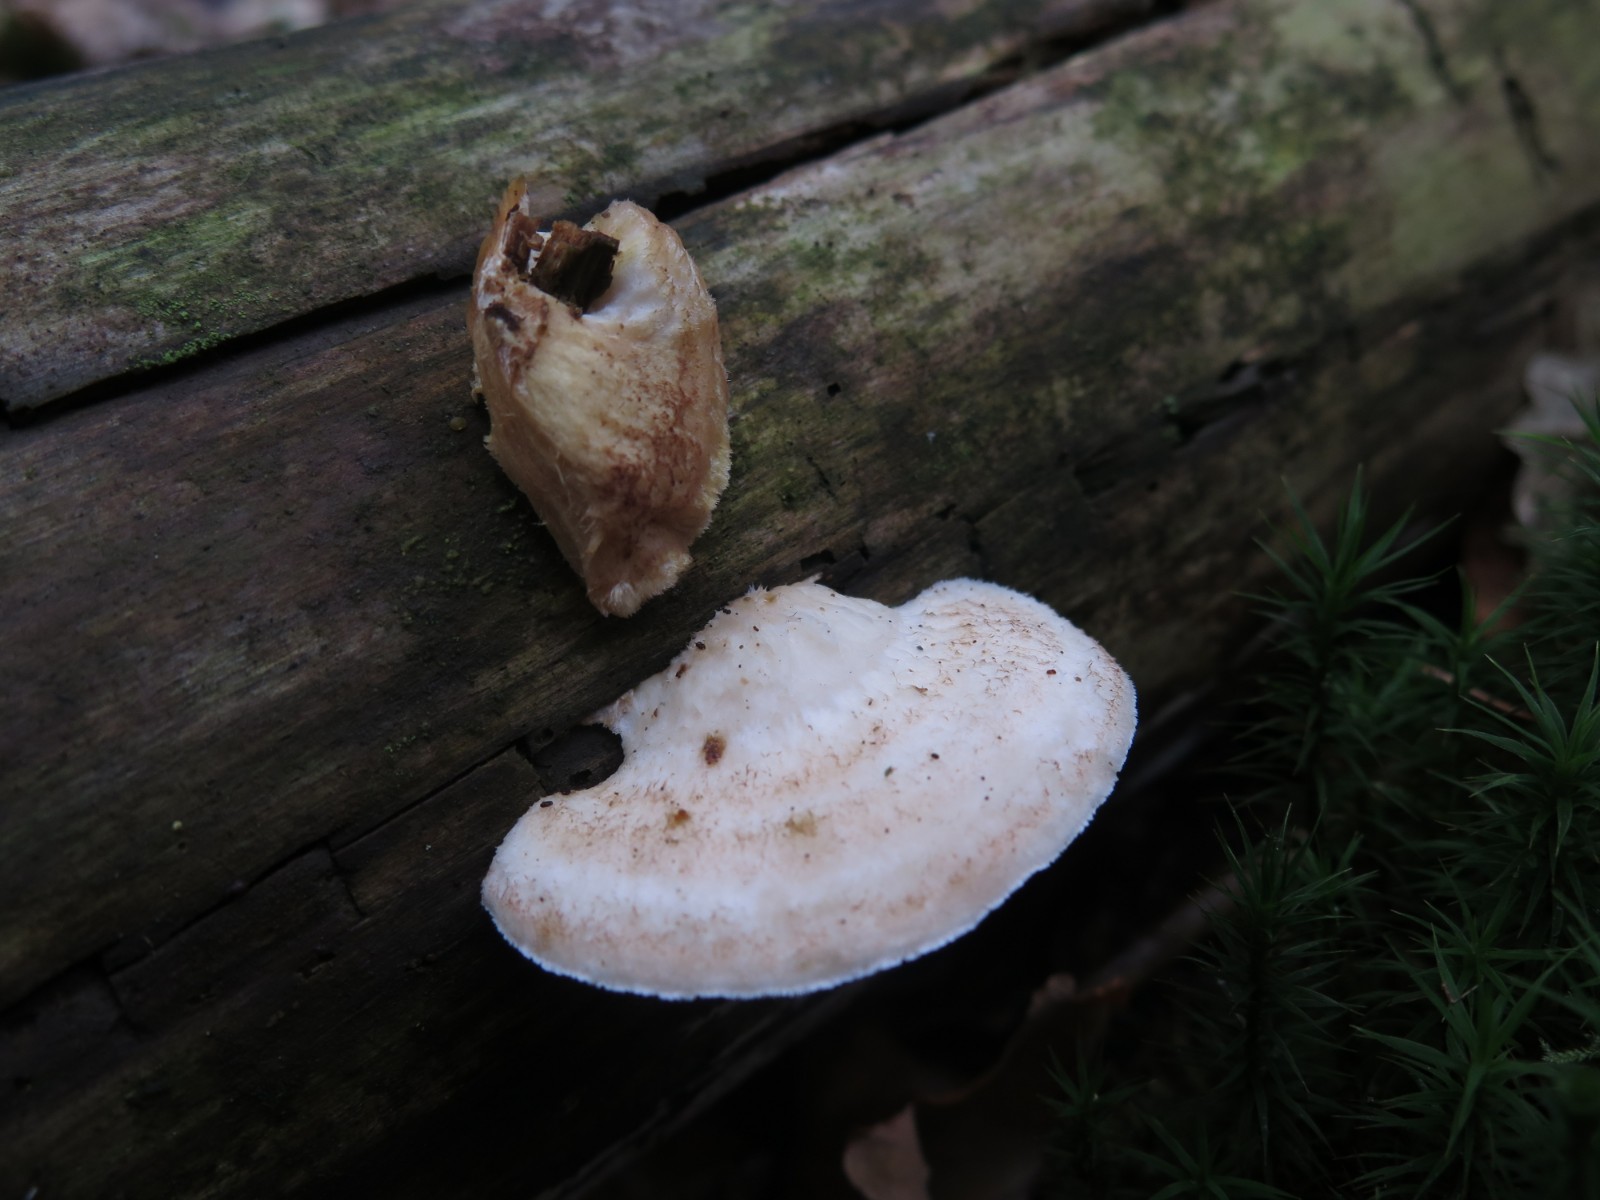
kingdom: Fungi
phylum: Basidiomycota
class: Agaricomycetes
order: Polyporales
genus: Fuscopostia
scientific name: Fuscopostia fragilis
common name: brunende kødporesvamp
